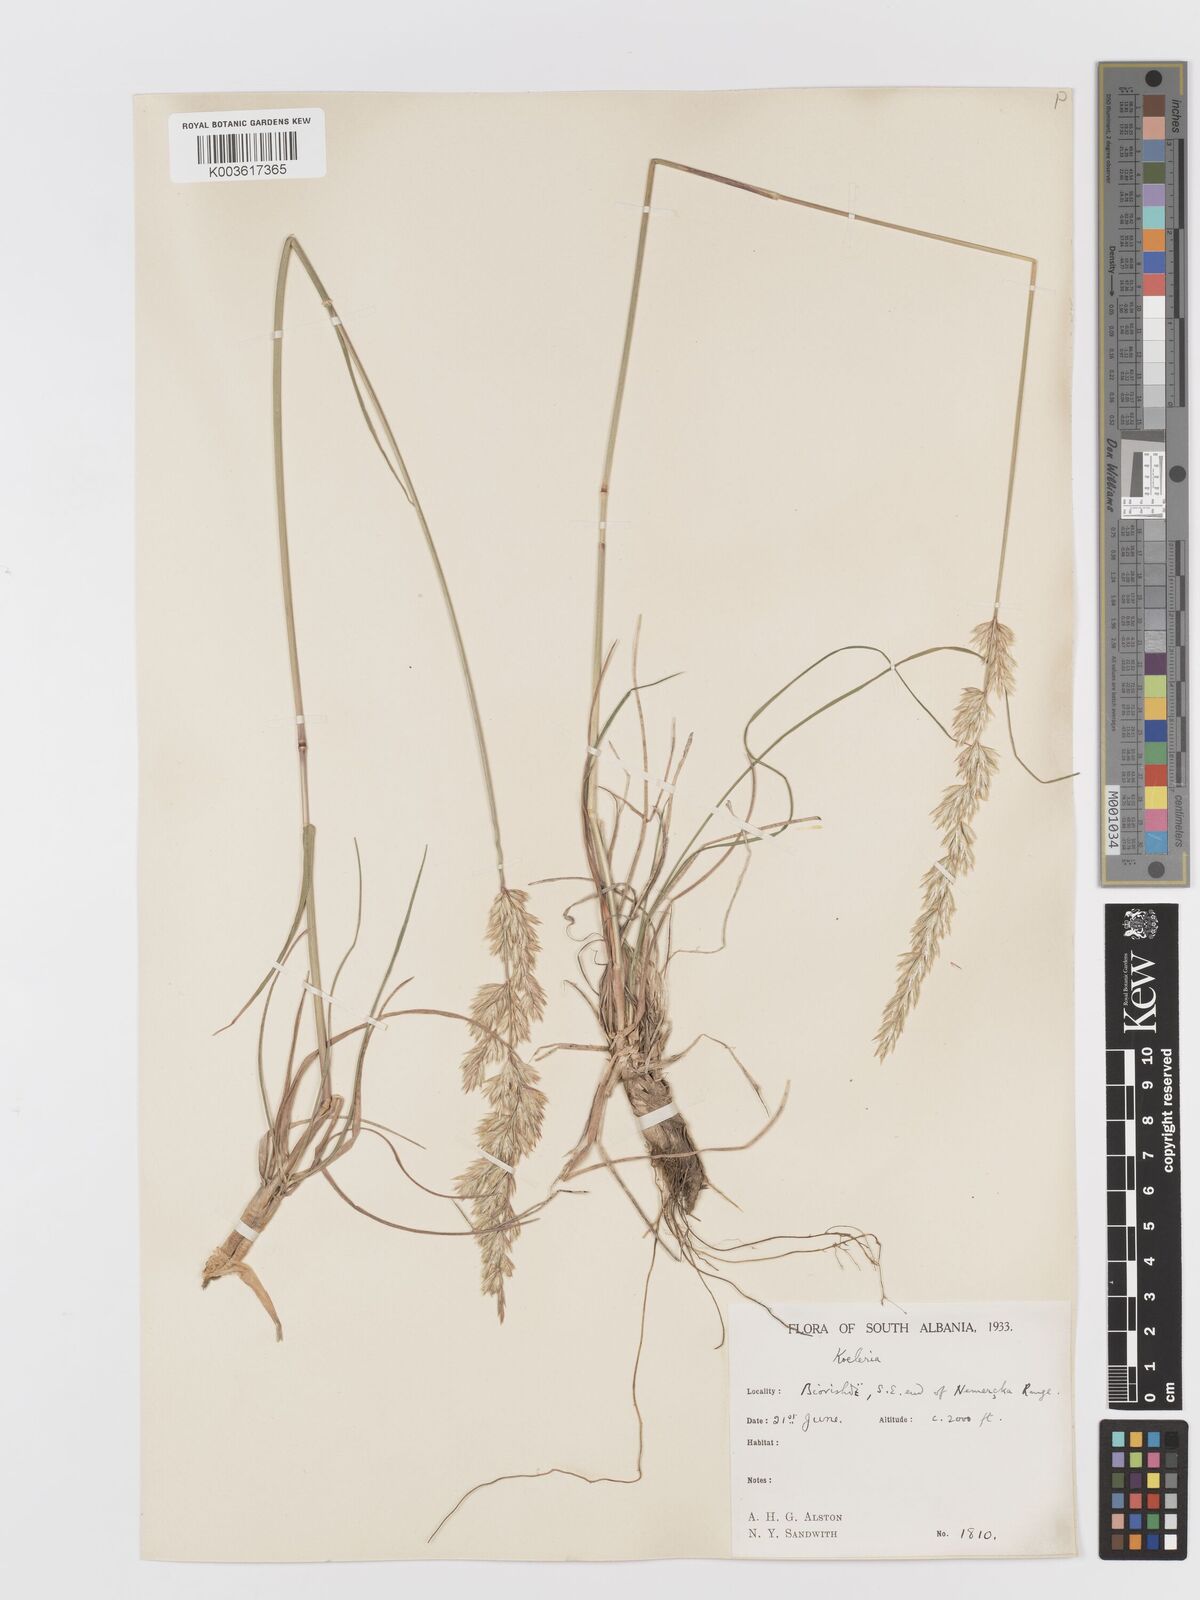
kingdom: Plantae
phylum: Tracheophyta
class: Liliopsida
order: Poales
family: Poaceae
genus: Koeleria
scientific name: Koeleria splendens
